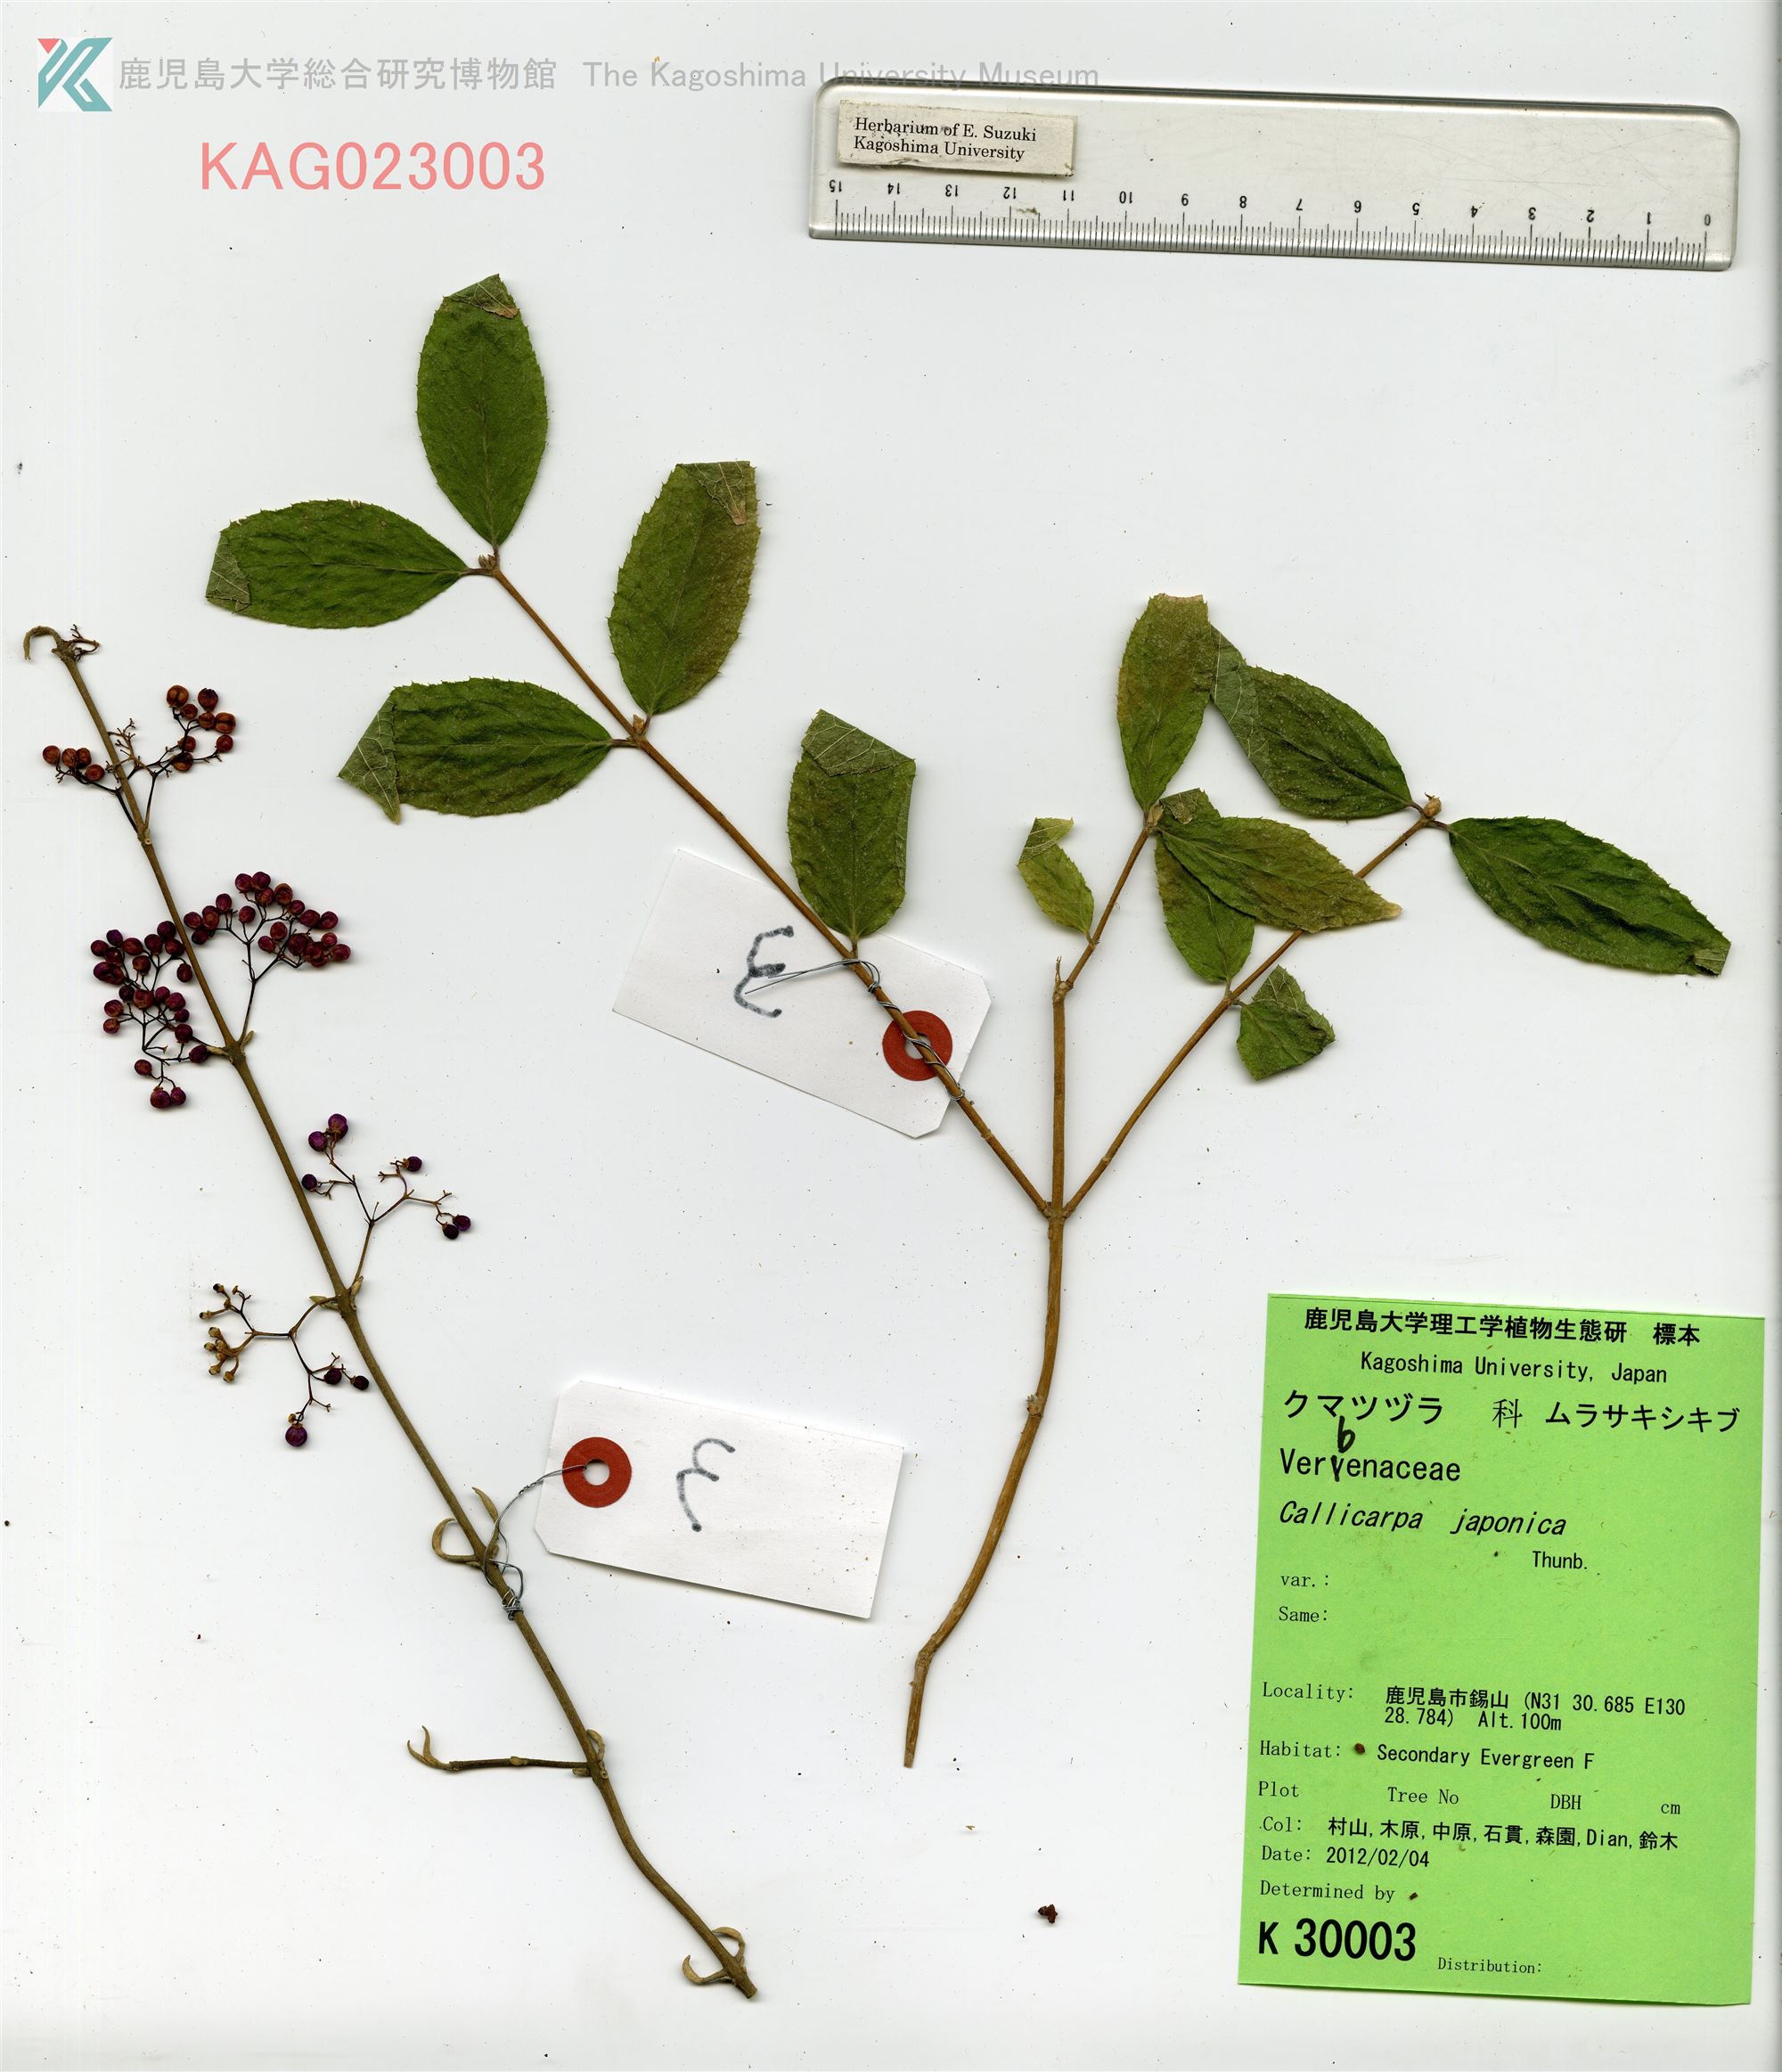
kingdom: Plantae
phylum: Tracheophyta
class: Magnoliopsida
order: Lamiales
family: Lamiaceae
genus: Callicarpa
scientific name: Callicarpa japonica
